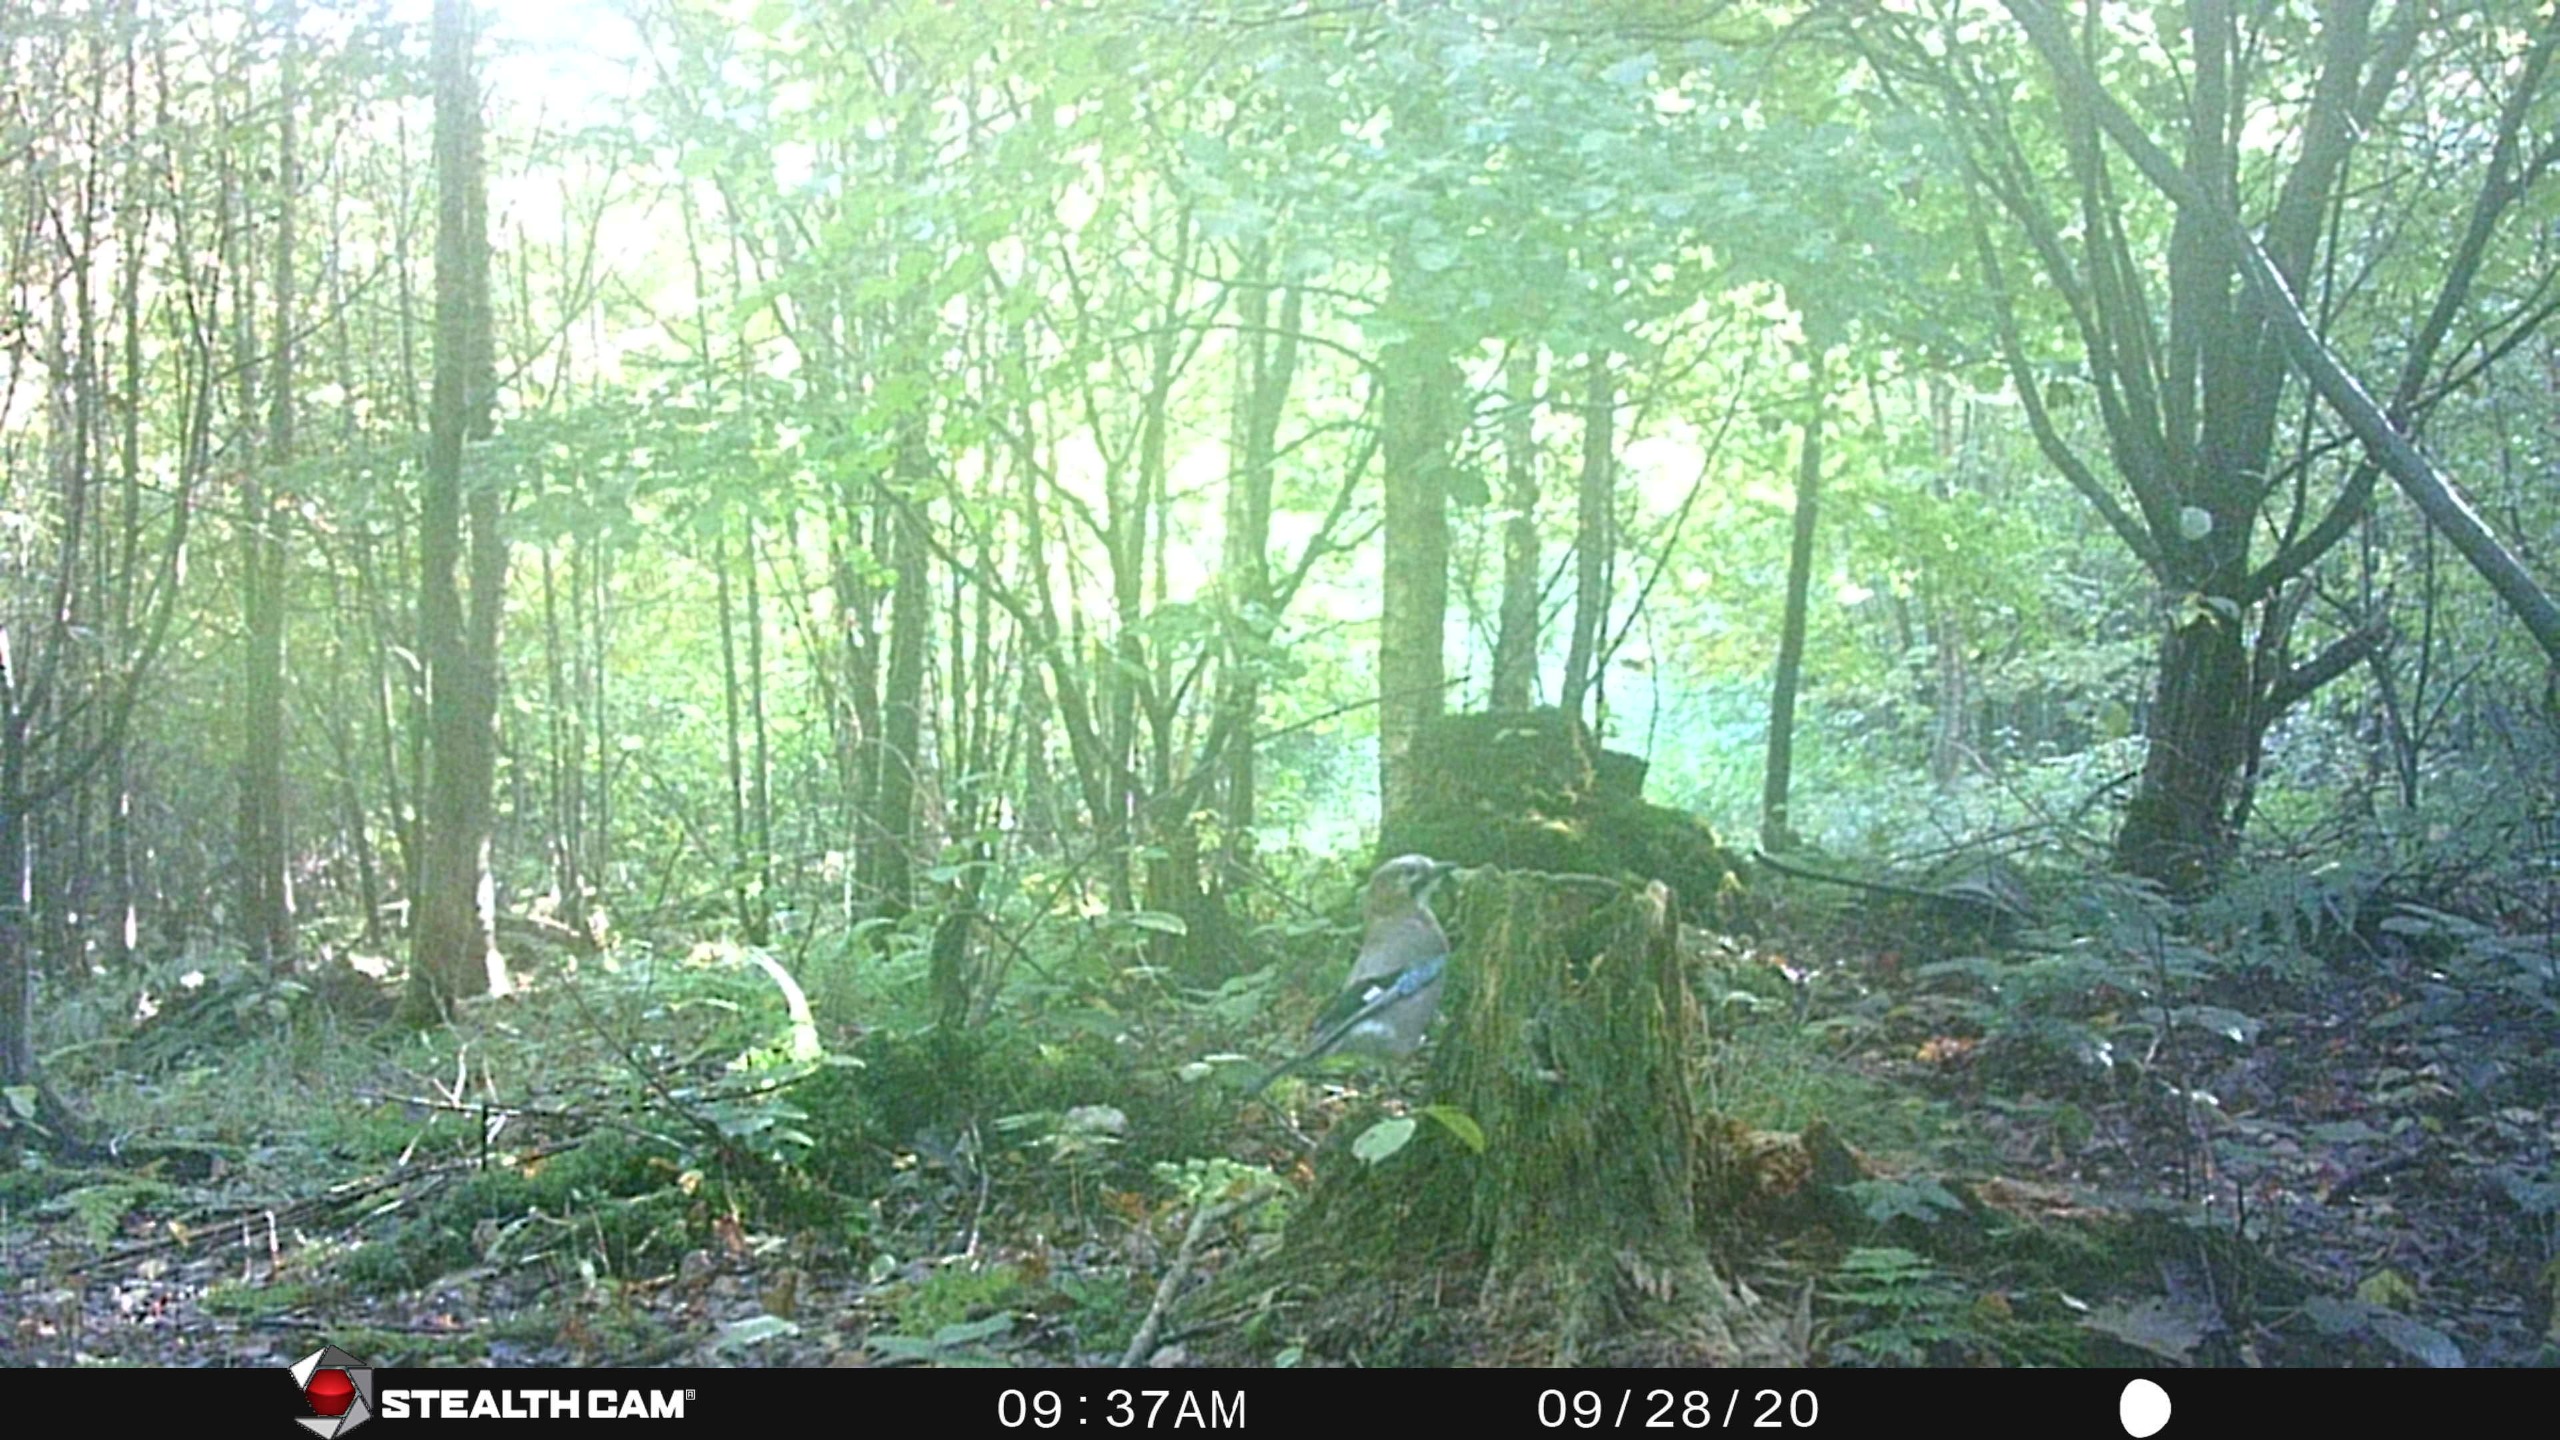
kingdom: Animalia
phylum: Chordata
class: Aves
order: Passeriformes
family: Corvidae
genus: Garrulus
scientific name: Garrulus glandarius
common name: Skovskade
